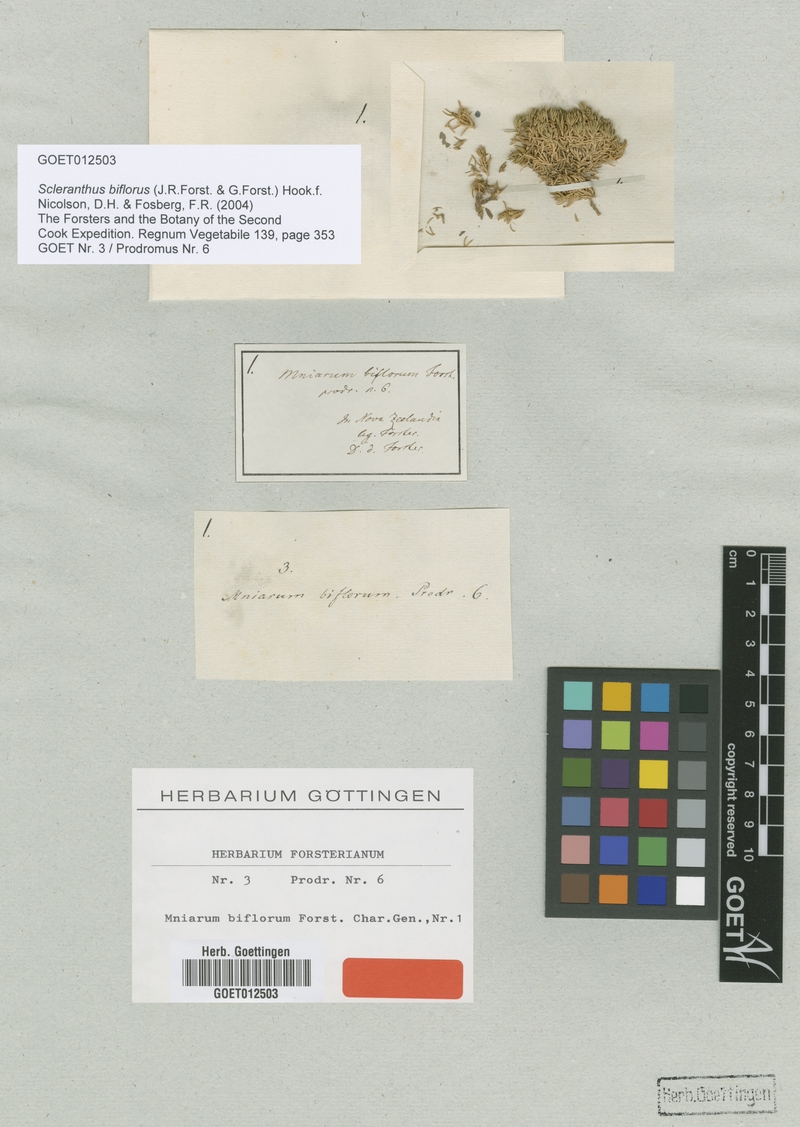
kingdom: Plantae
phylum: Tracheophyta
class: Magnoliopsida
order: Caryophyllales
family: Caryophyllaceae
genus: Scleranthus
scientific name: Scleranthus biflorus
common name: Two-flower knawel
